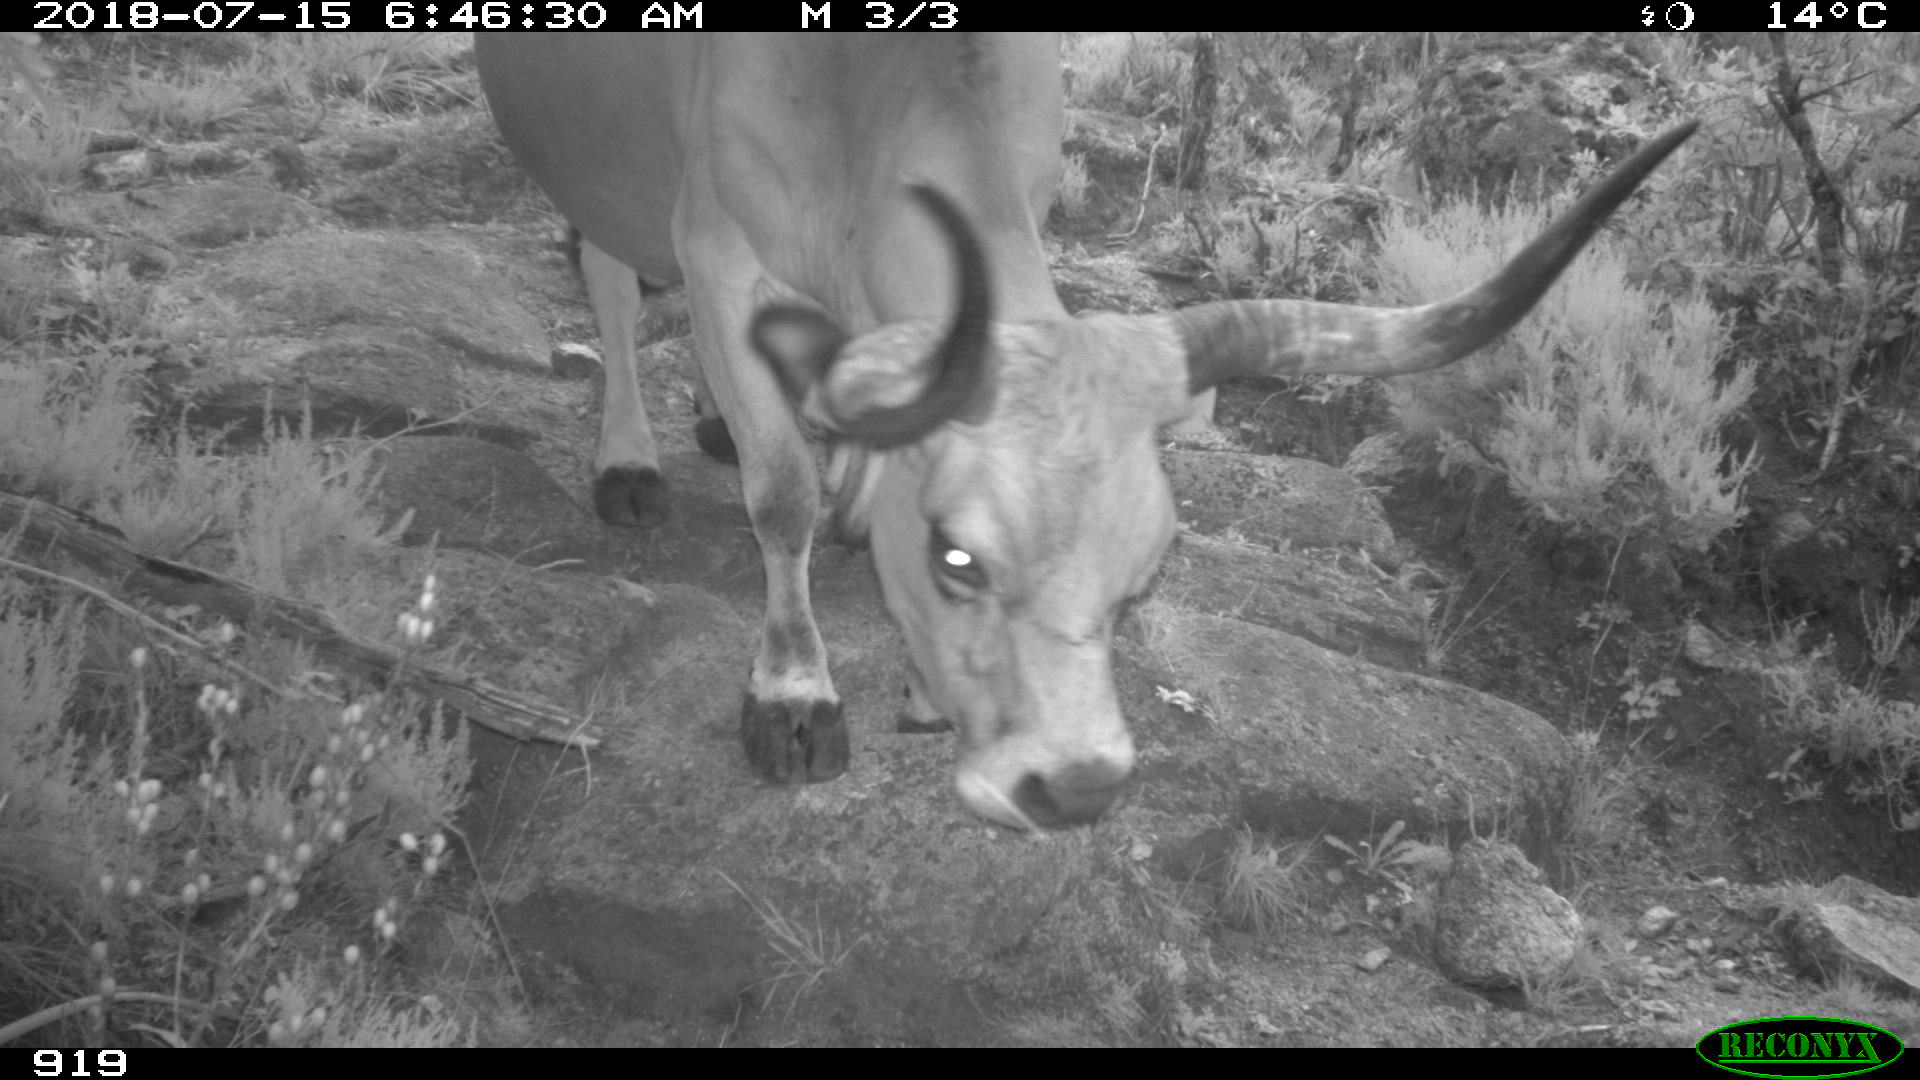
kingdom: Animalia
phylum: Chordata
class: Mammalia
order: Artiodactyla
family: Bovidae
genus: Bos
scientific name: Bos taurus
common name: Domesticated cattle
